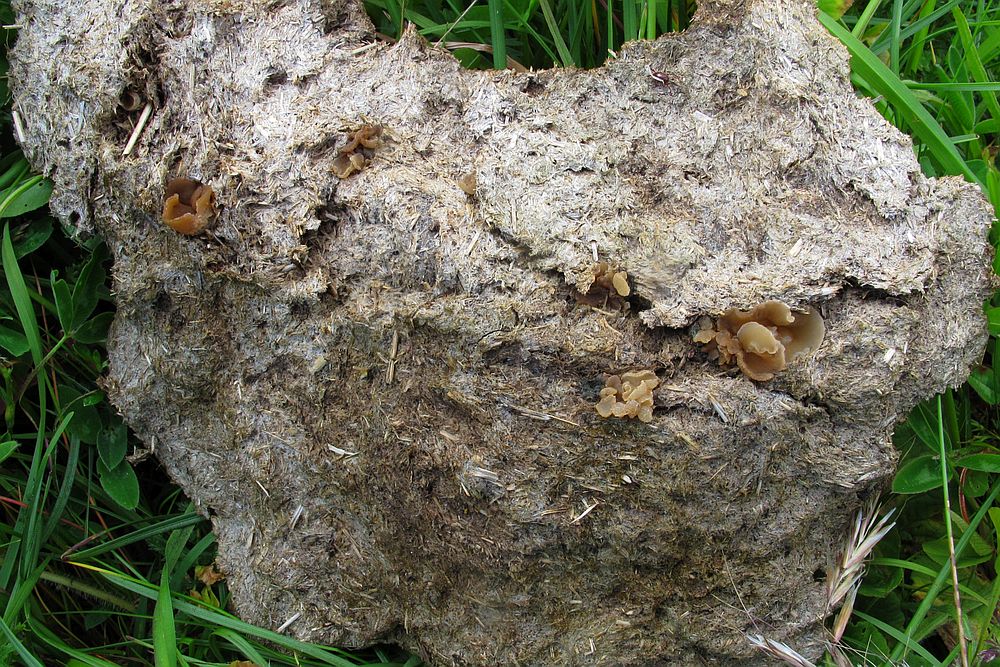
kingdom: Fungi
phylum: Ascomycota
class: Pezizomycetes
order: Pezizales
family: Pezizaceae
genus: Peziza
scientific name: Peziza fimeti
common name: møg-bægersvamp
